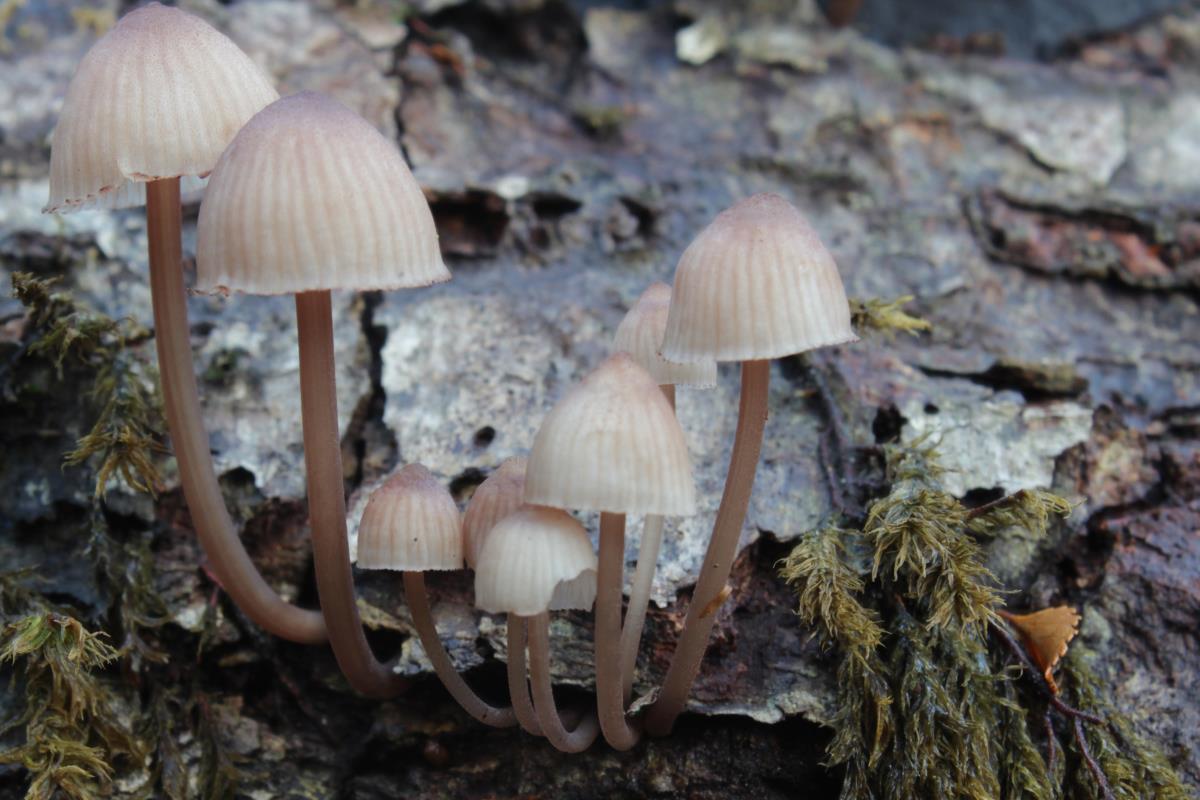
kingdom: Fungi
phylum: Basidiomycota
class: Agaricomycetes
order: Agaricales
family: Mycenaceae
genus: Mycena
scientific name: Mycena parsonsii
